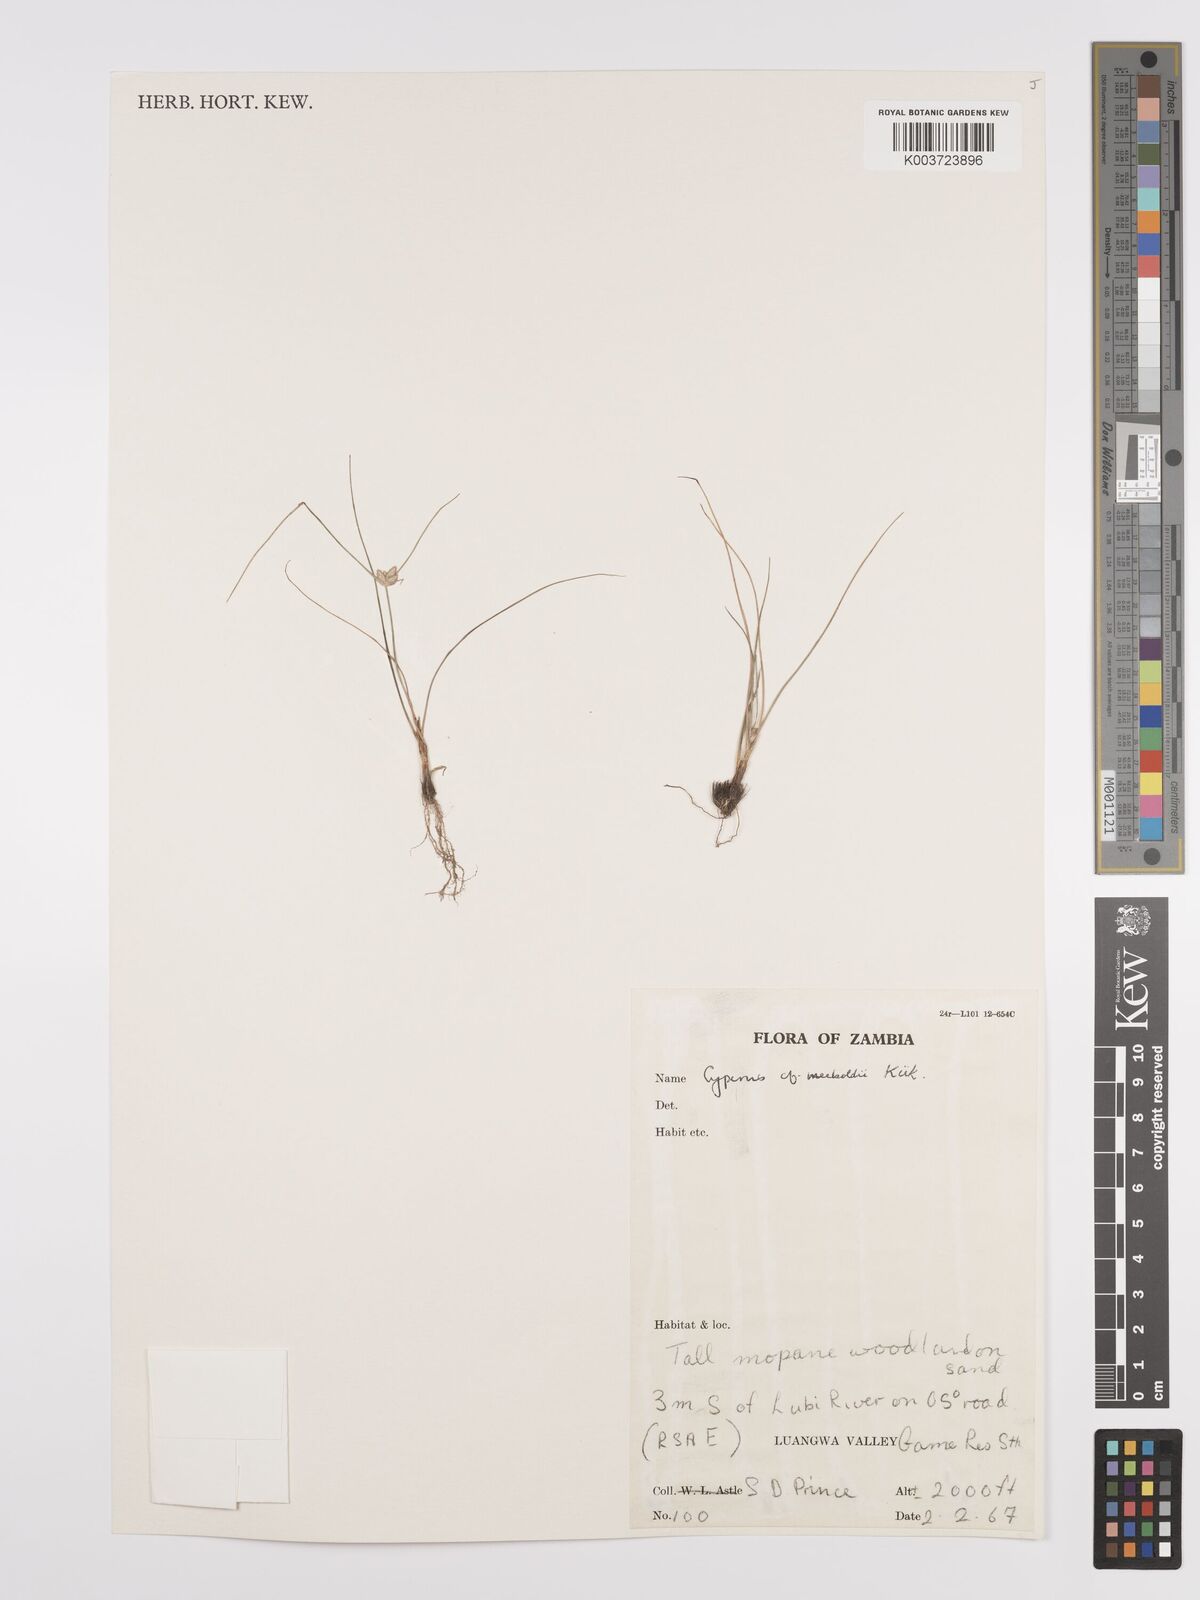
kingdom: Plantae
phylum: Tracheophyta
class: Liliopsida
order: Poales
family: Cyperaceae
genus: Cyperus
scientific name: Cyperus meeboldii
